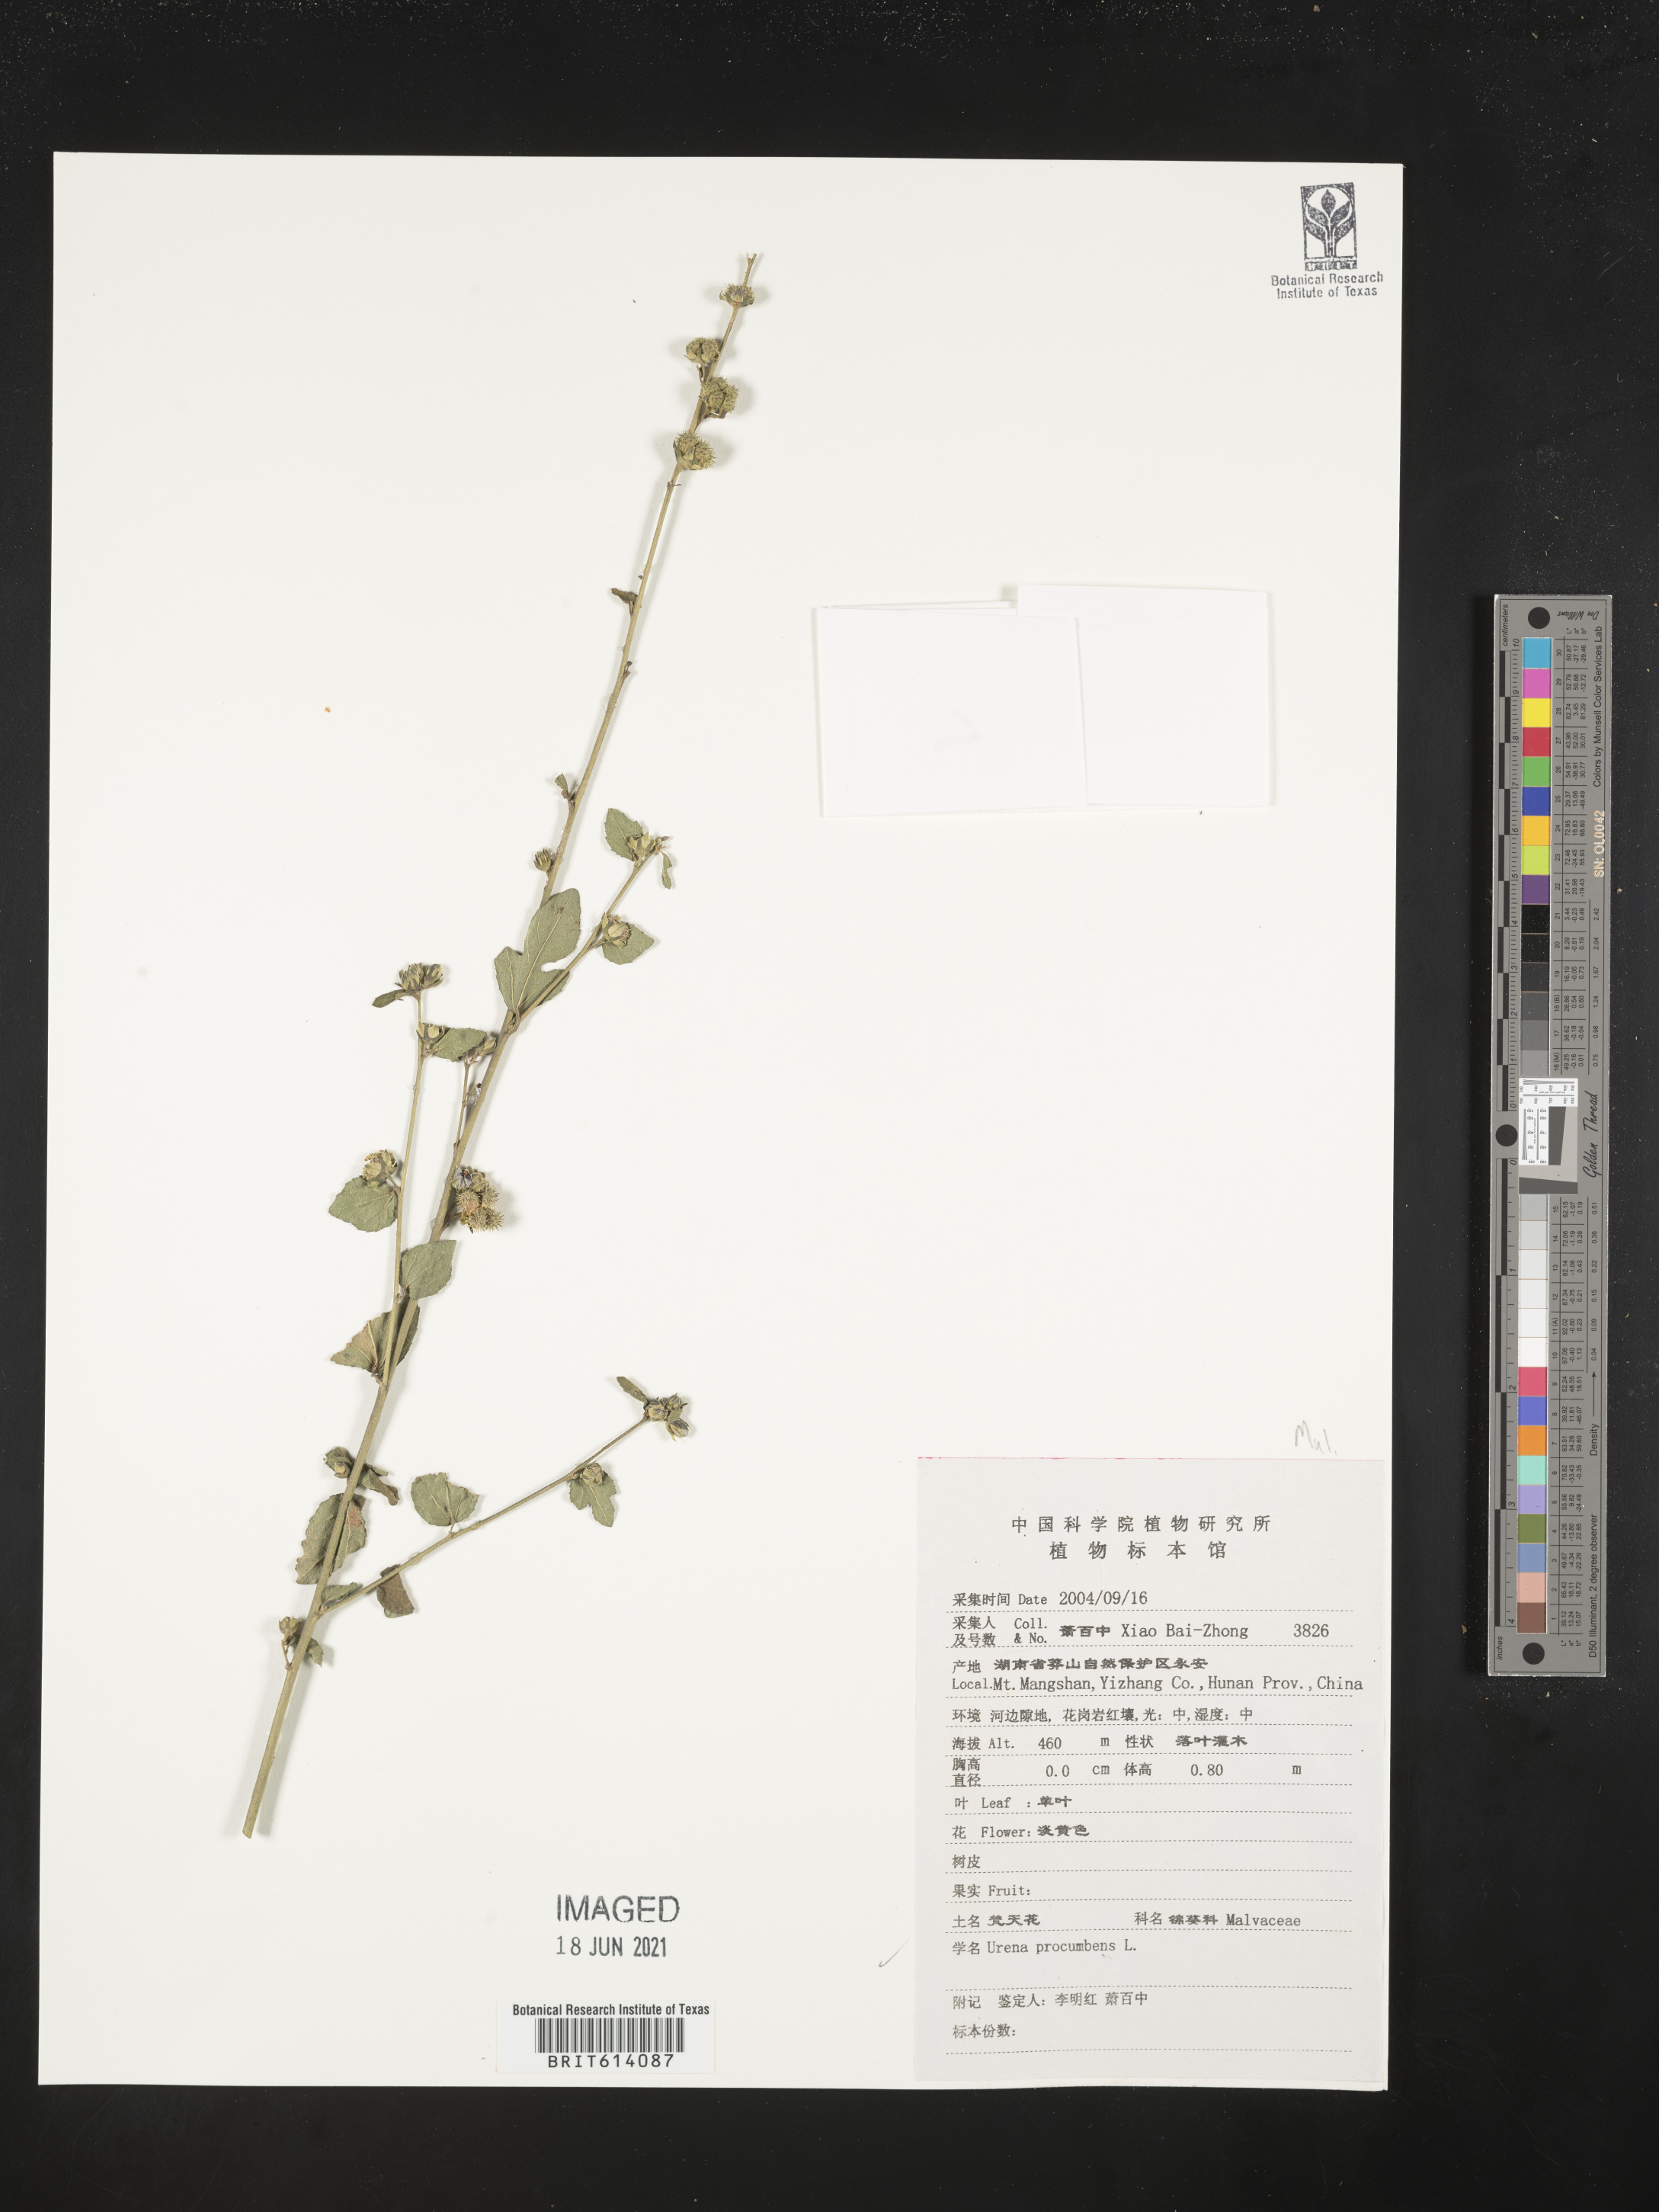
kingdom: Plantae
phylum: Tracheophyta
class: Magnoliopsida
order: Malvales
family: Malvaceae
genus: Urena
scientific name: Urena procumbens
